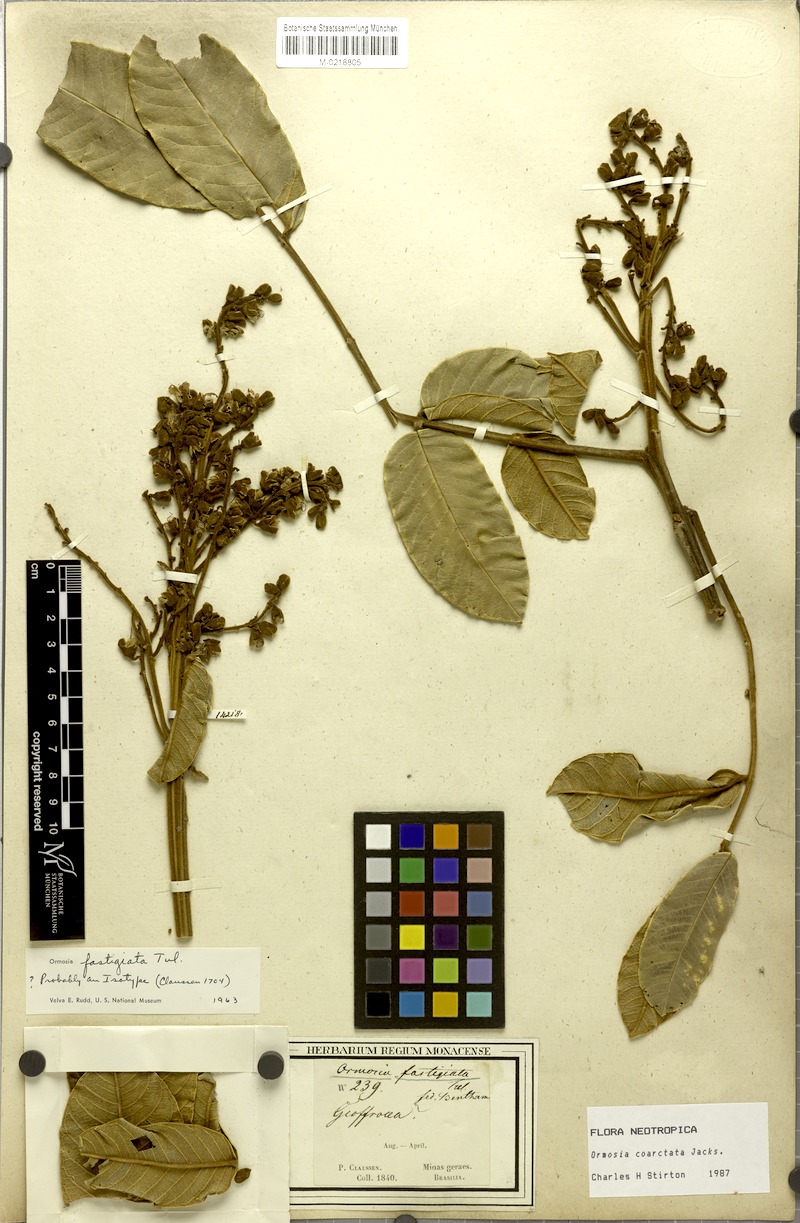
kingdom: Plantae
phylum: Tracheophyta
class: Magnoliopsida
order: Fabales
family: Fabaceae
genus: Ormosia
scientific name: Ormosia coarctata
